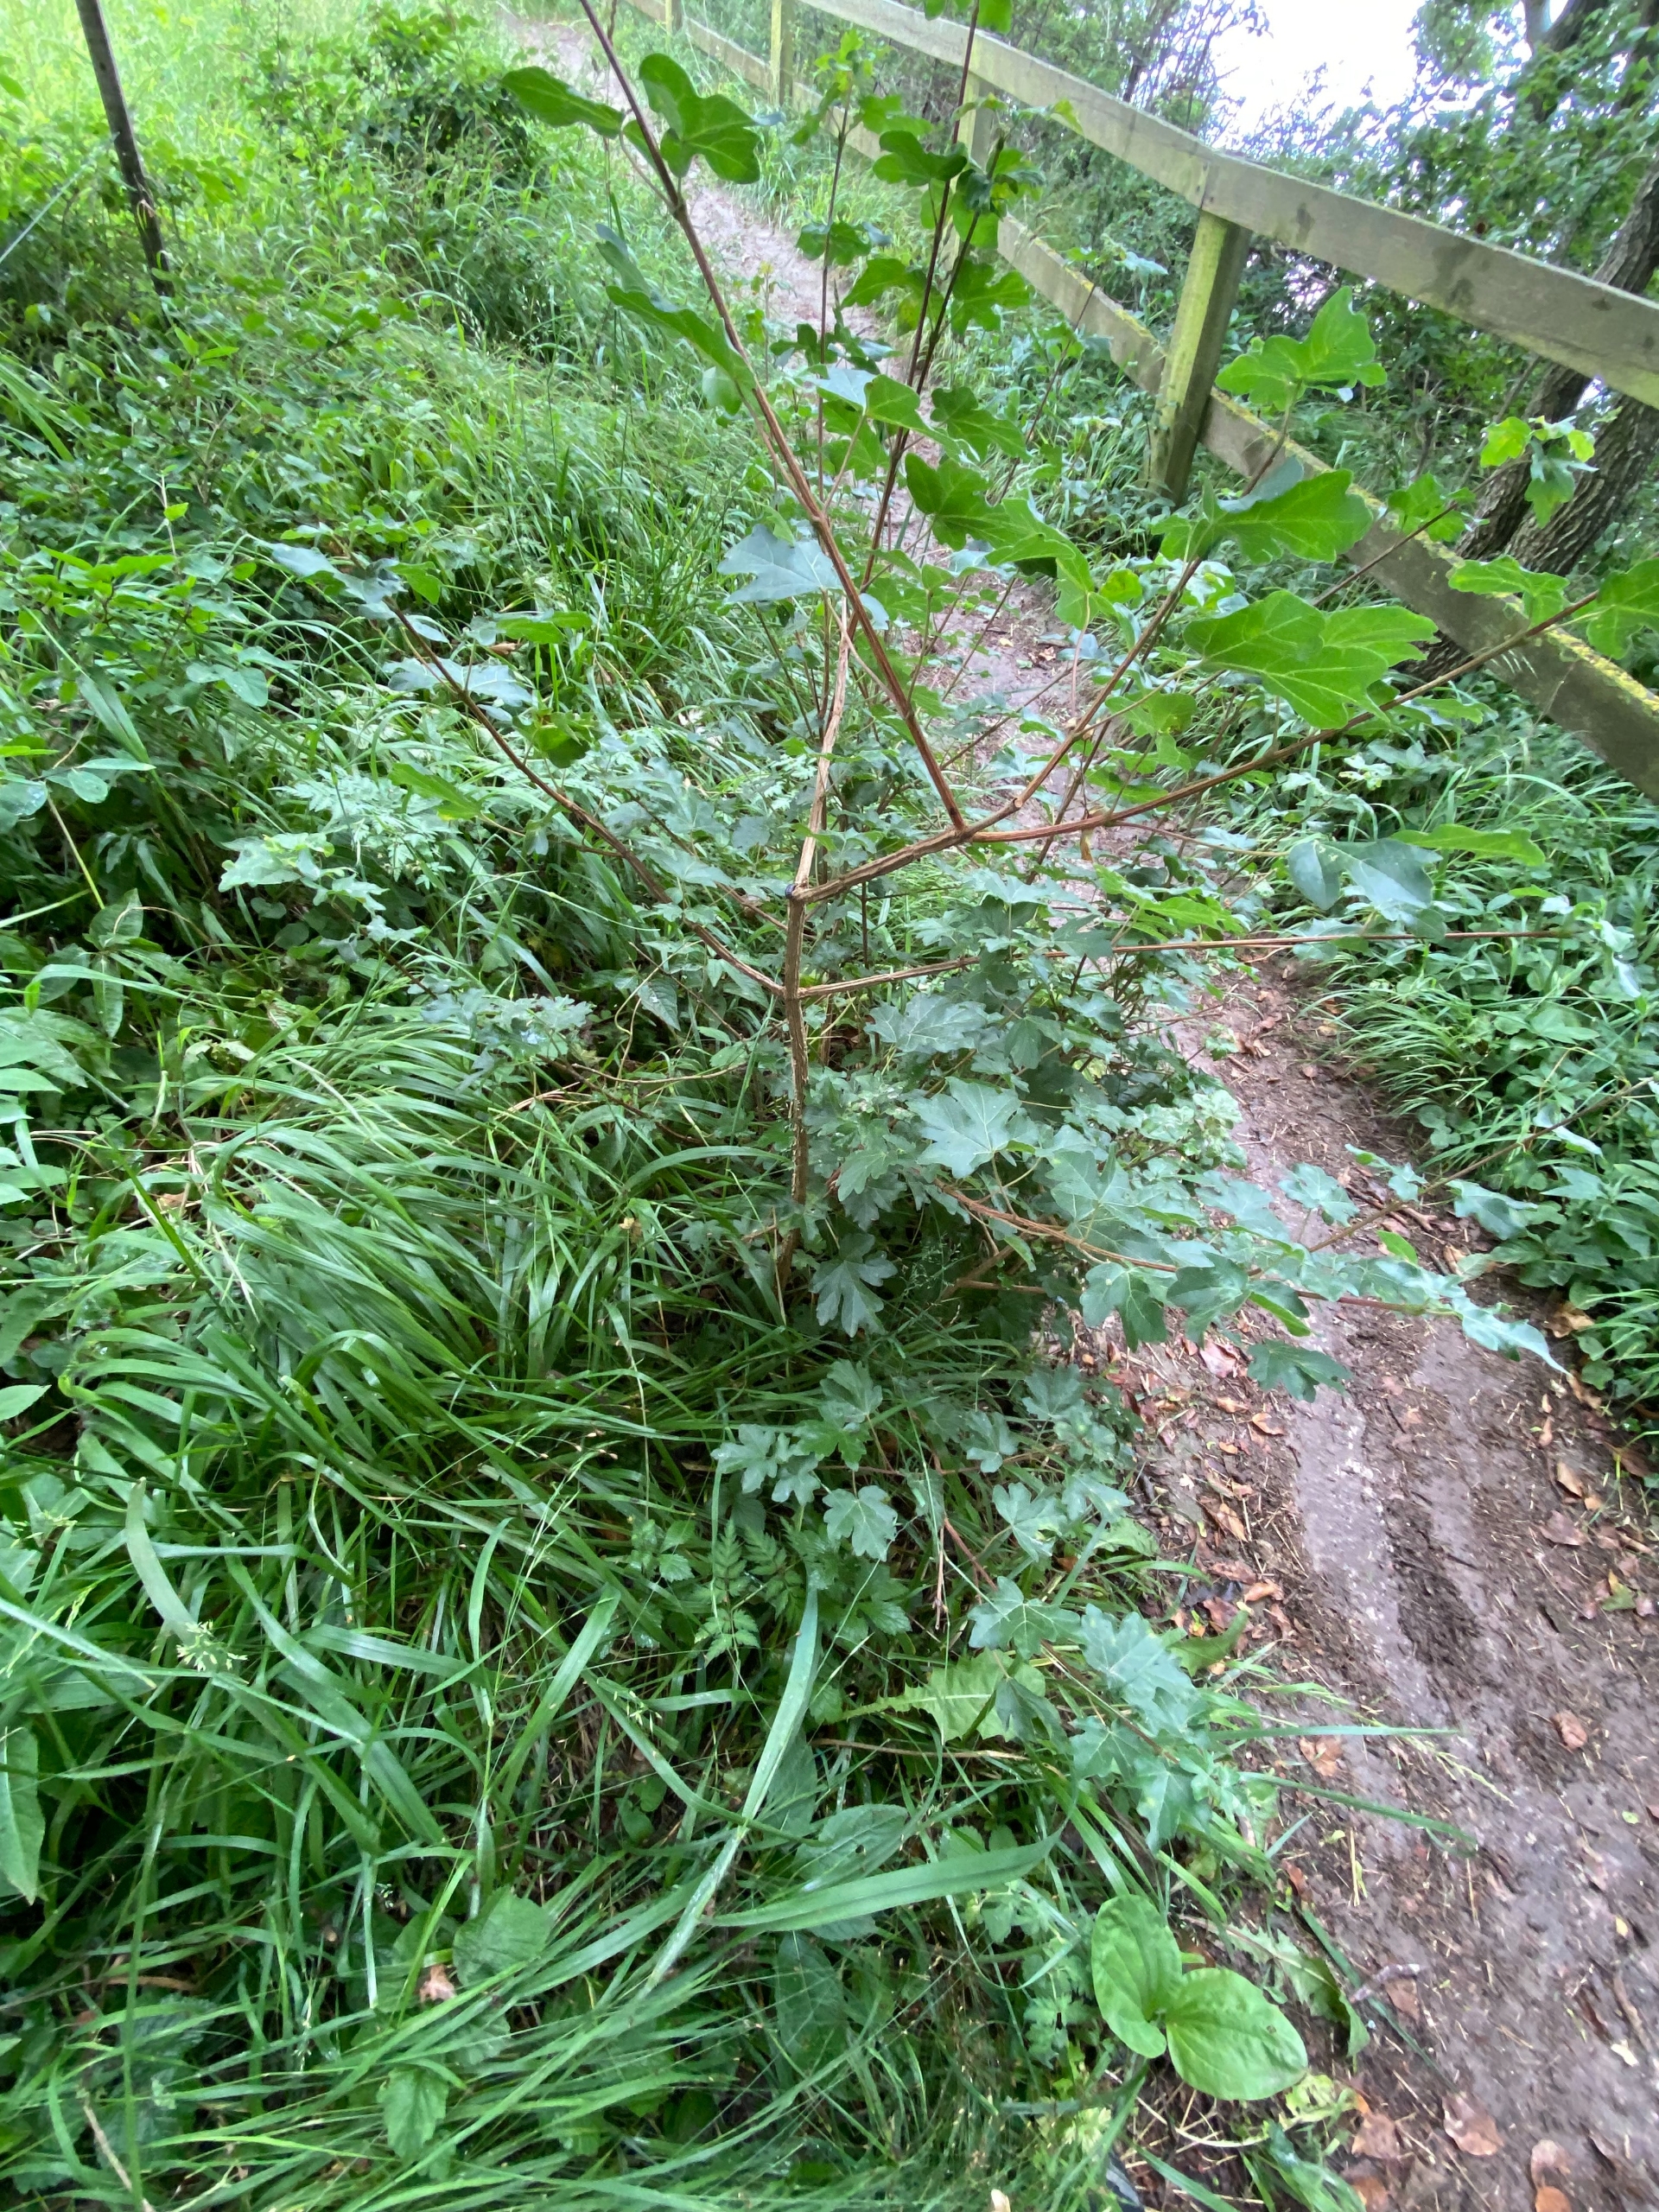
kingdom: Plantae
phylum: Tracheophyta
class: Magnoliopsida
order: Sapindales
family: Sapindaceae
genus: Acer
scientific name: Acer campestre
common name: Navr
